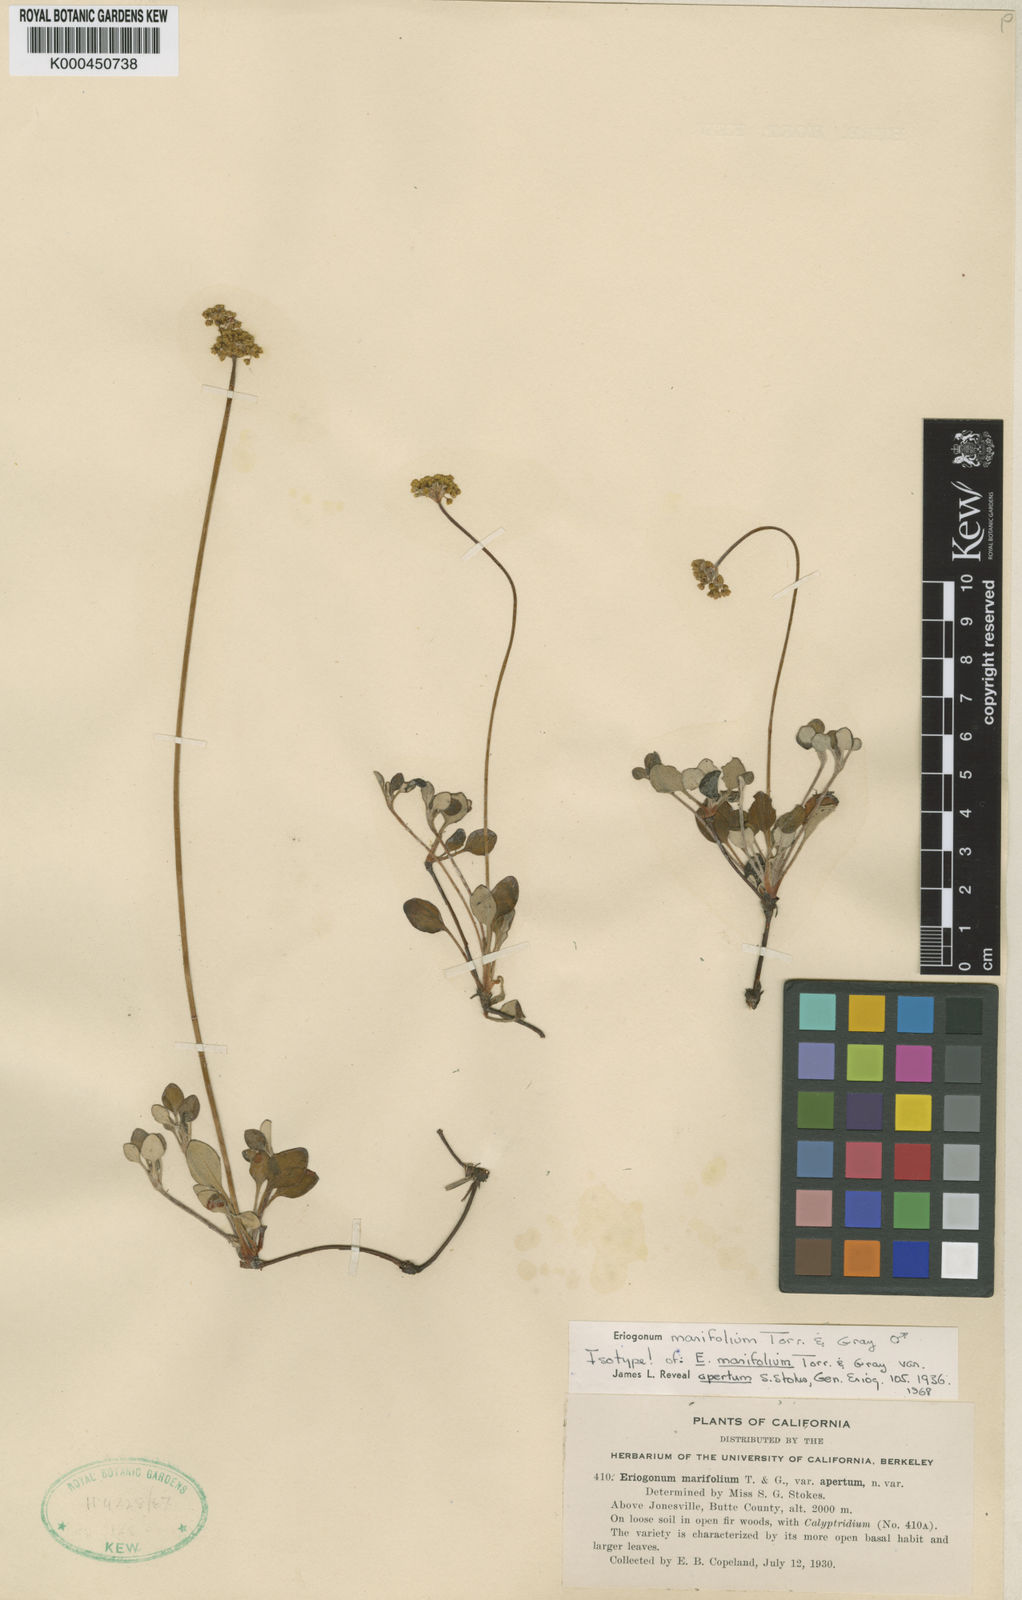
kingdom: Plantae
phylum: Tracheophyta
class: Magnoliopsida
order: Caryophyllales
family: Polygonaceae
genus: Eriogonum
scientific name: Eriogonum marifolium
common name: Marum-leaf wild buckwheat
